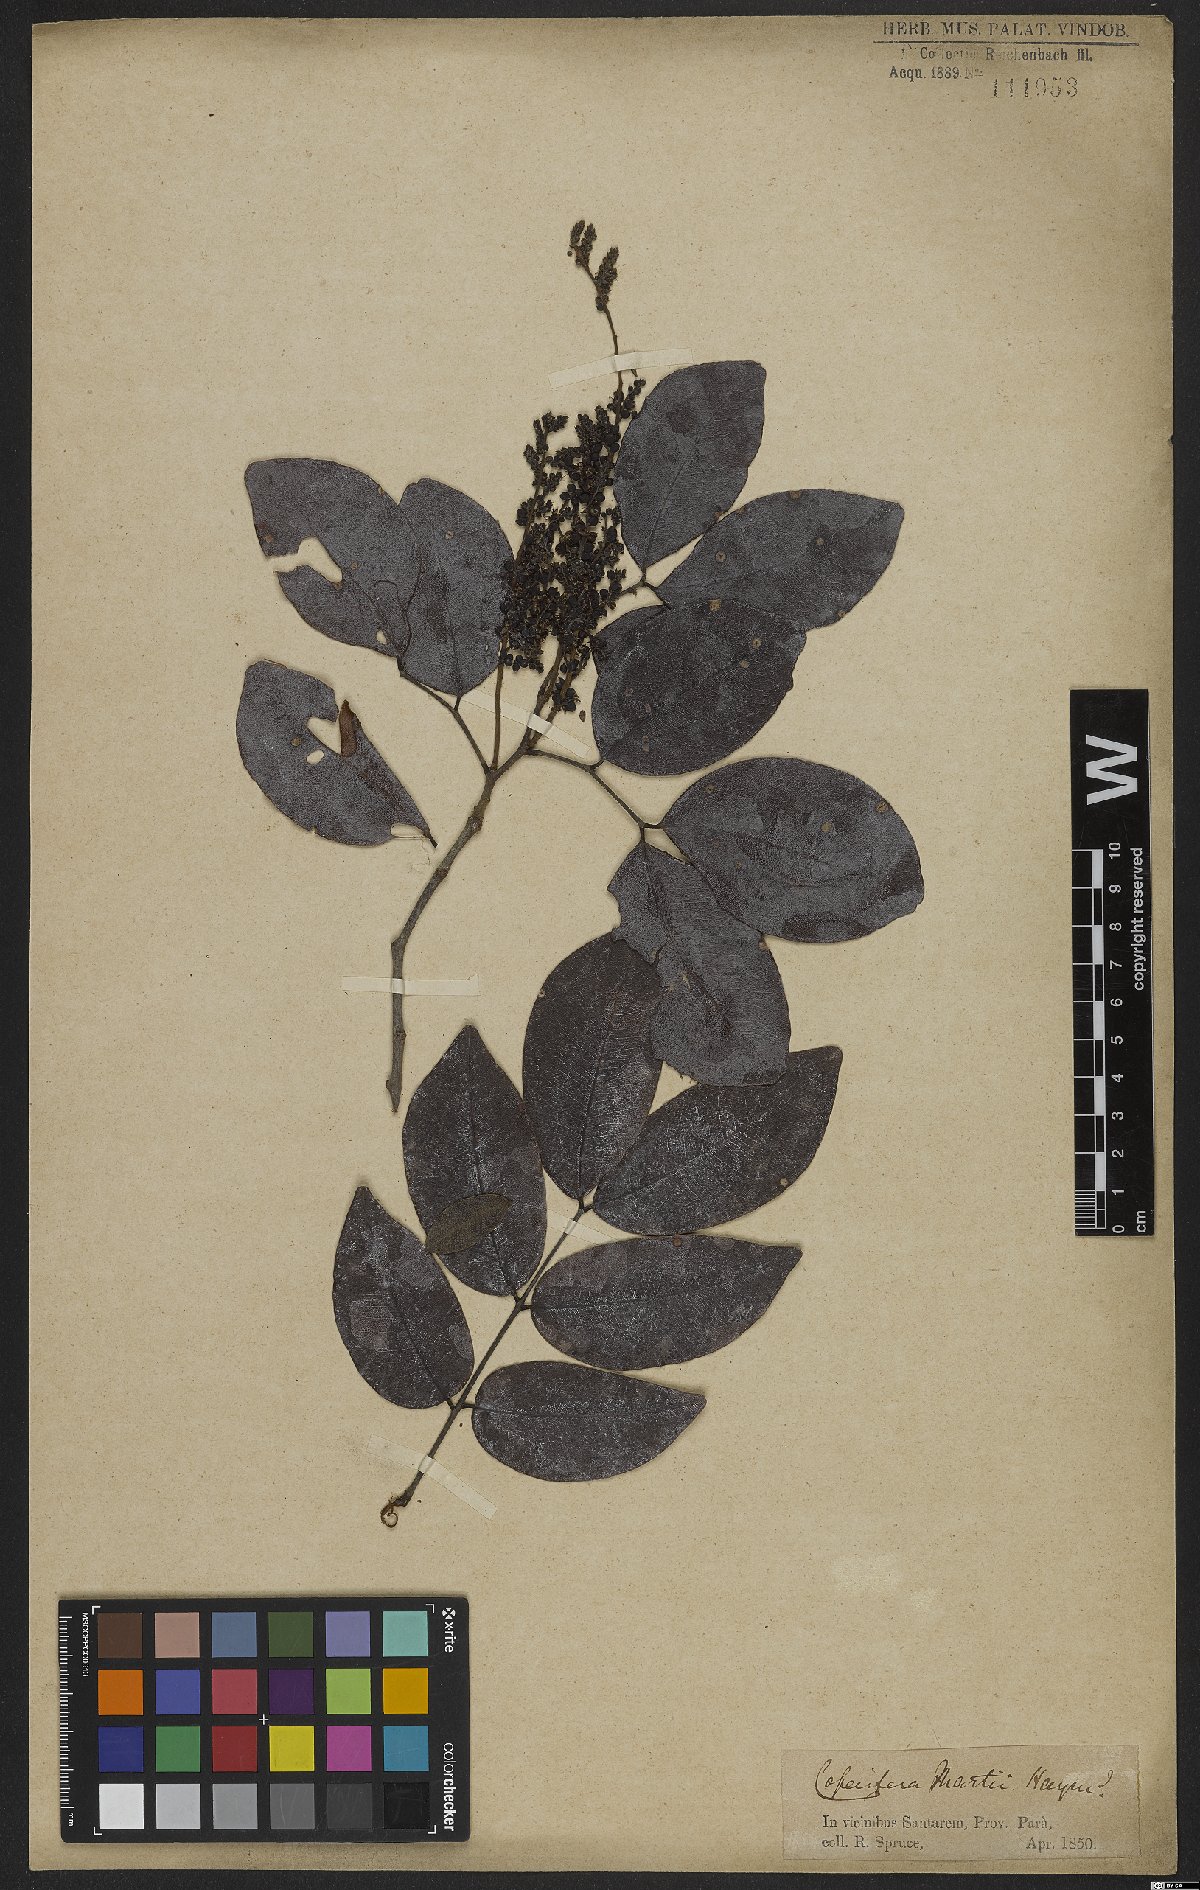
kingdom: Plantae
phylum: Tracheophyta
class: Magnoliopsida
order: Fabales
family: Fabaceae
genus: Copaifera
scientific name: Copaifera martii
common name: Copaiba
